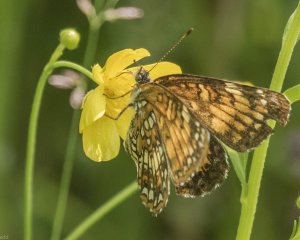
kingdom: Animalia
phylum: Arthropoda
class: Insecta
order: Lepidoptera
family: Nymphalidae
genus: Chlosyne
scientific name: Chlosyne harrisii
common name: Harris's Checkerspot
